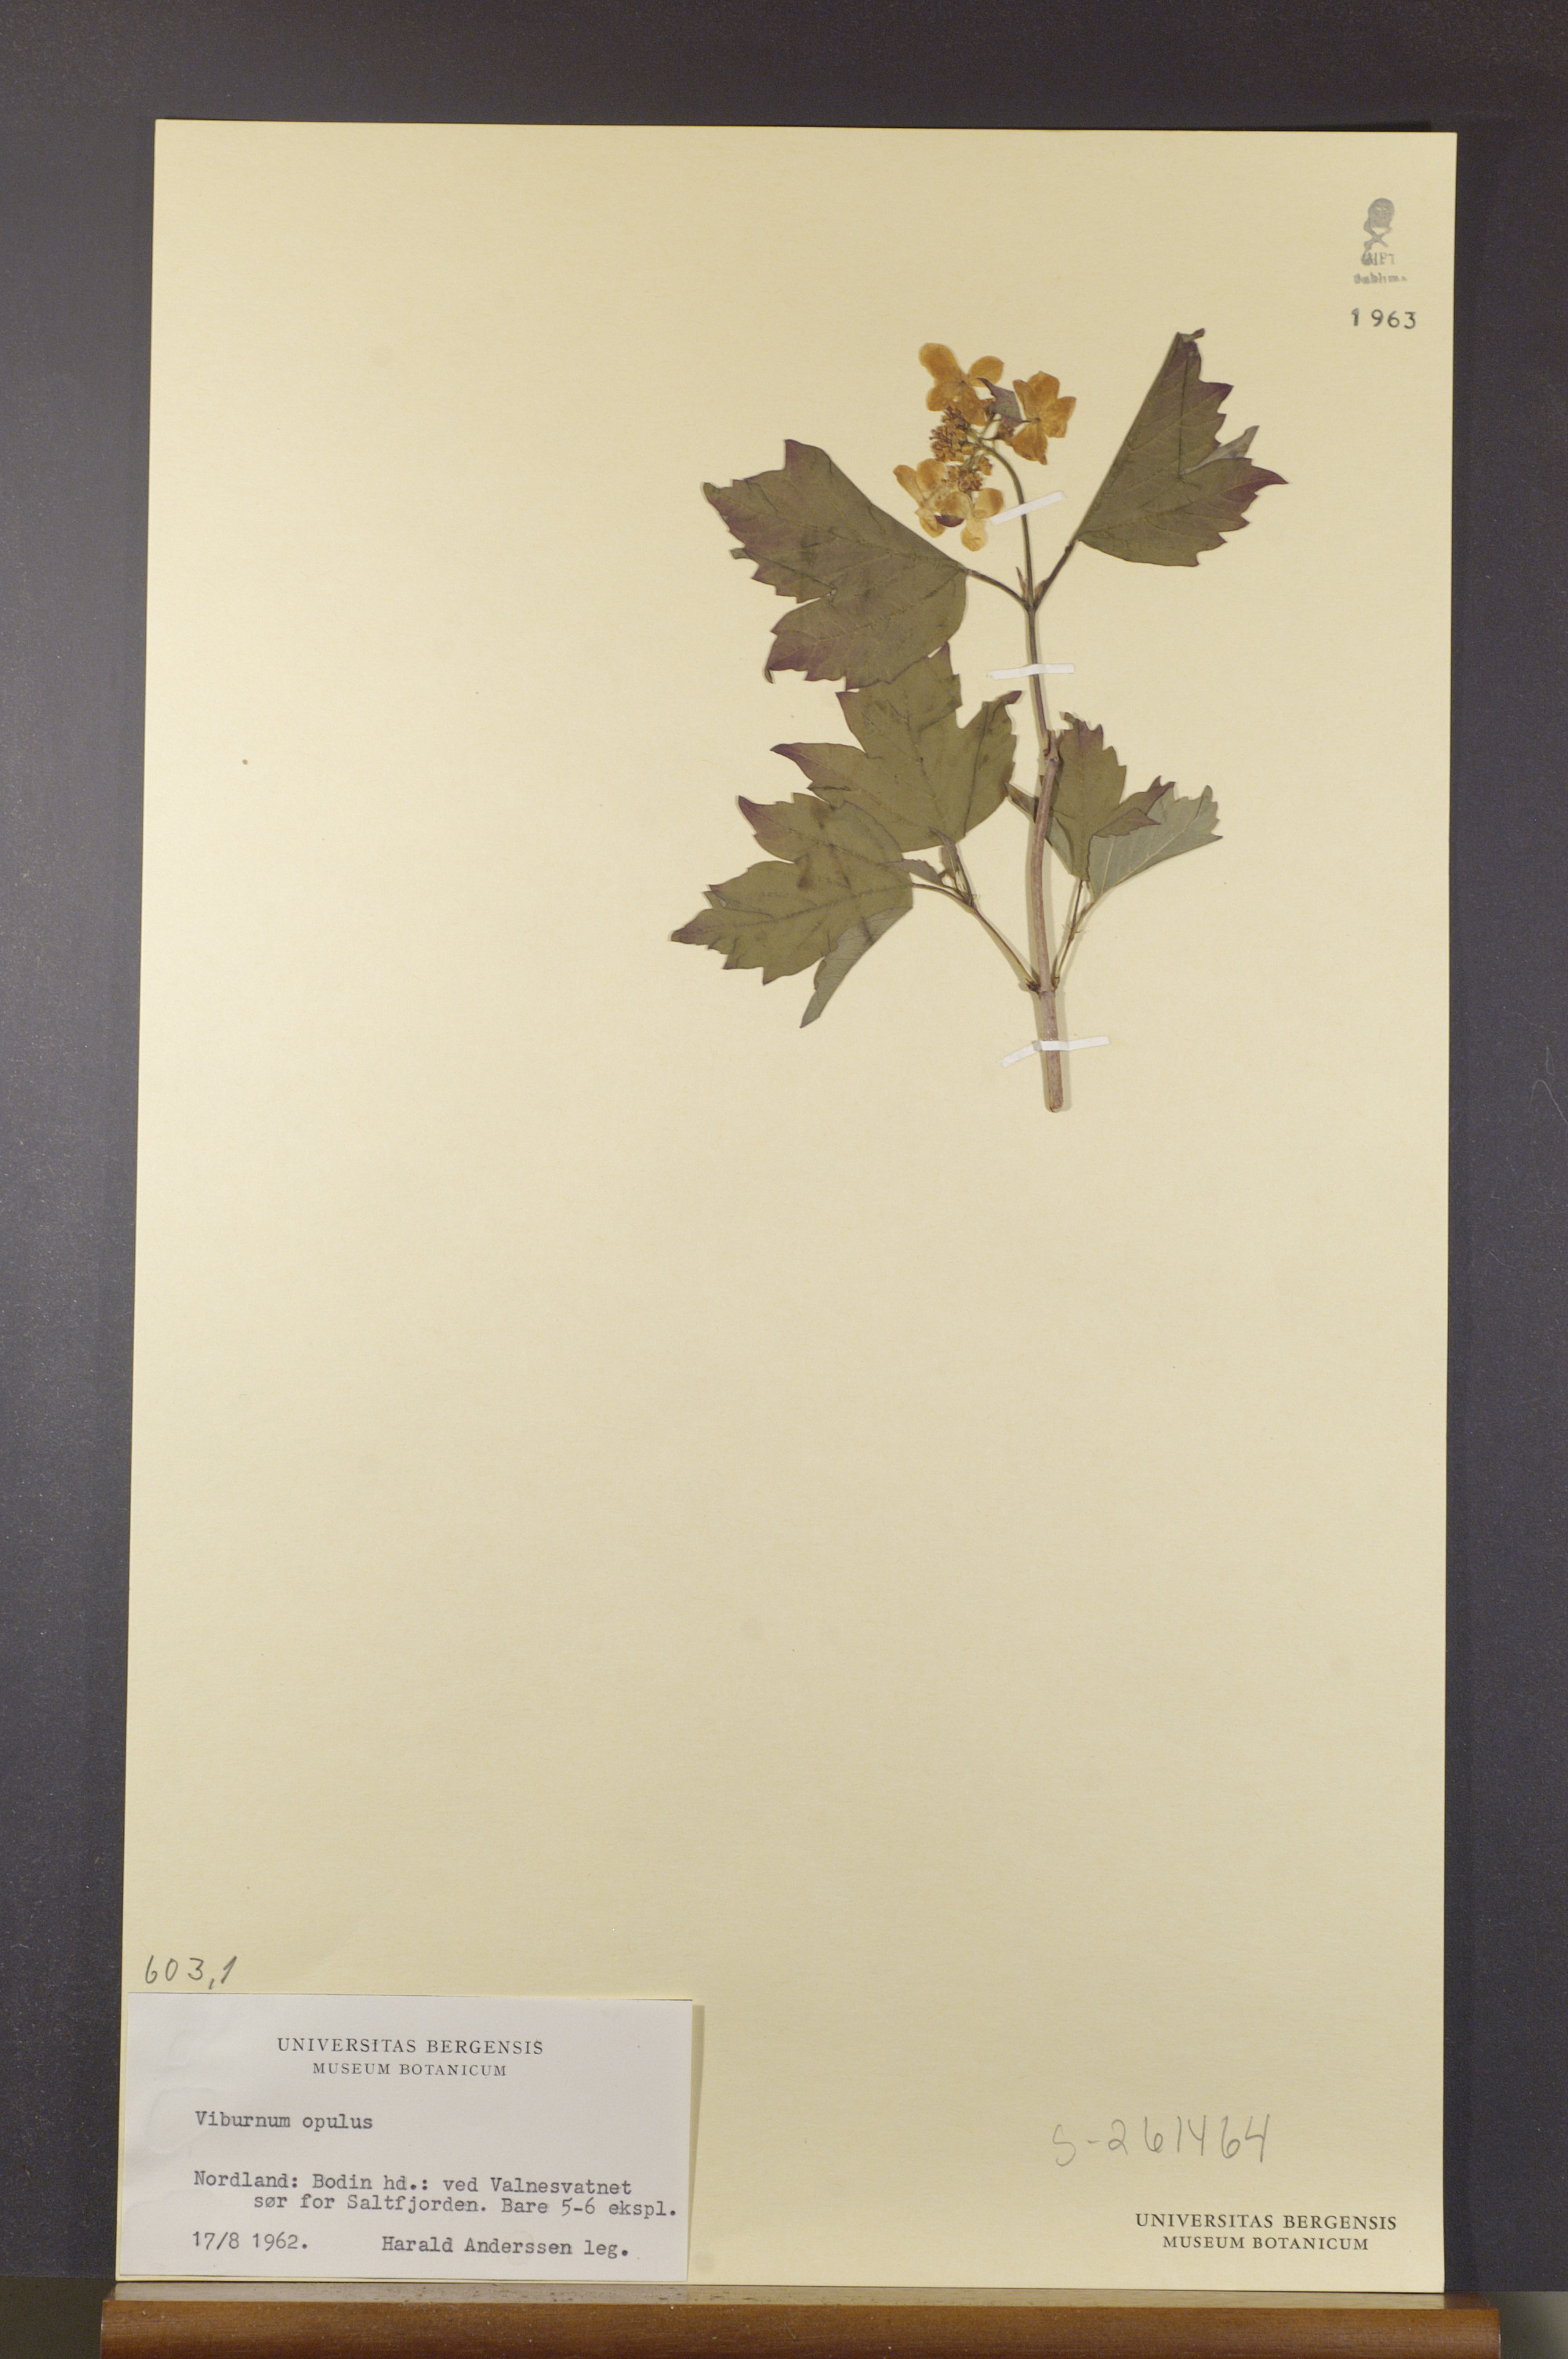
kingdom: Plantae
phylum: Tracheophyta
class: Magnoliopsida
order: Dipsacales
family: Viburnaceae
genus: Viburnum
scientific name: Viburnum opulus
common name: Guelder-rose
